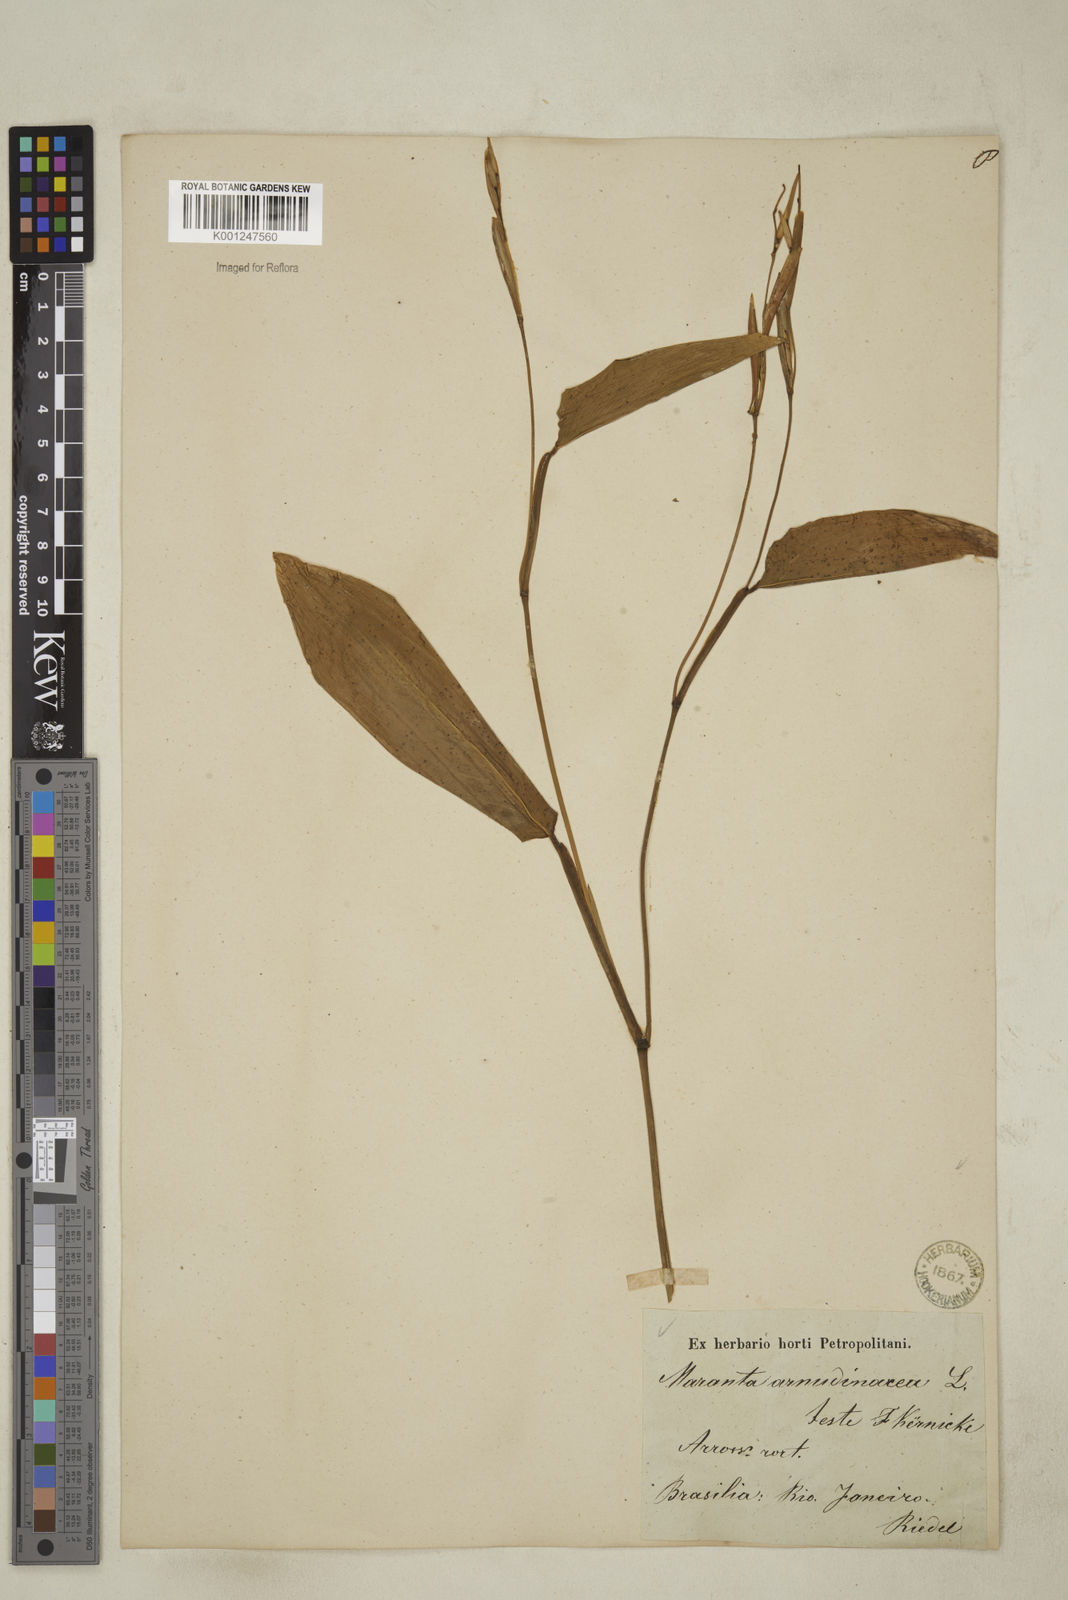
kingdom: Plantae
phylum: Tracheophyta
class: Liliopsida
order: Zingiberales
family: Marantaceae
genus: Maranta
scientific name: Maranta arundinacea
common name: Arrowroot
